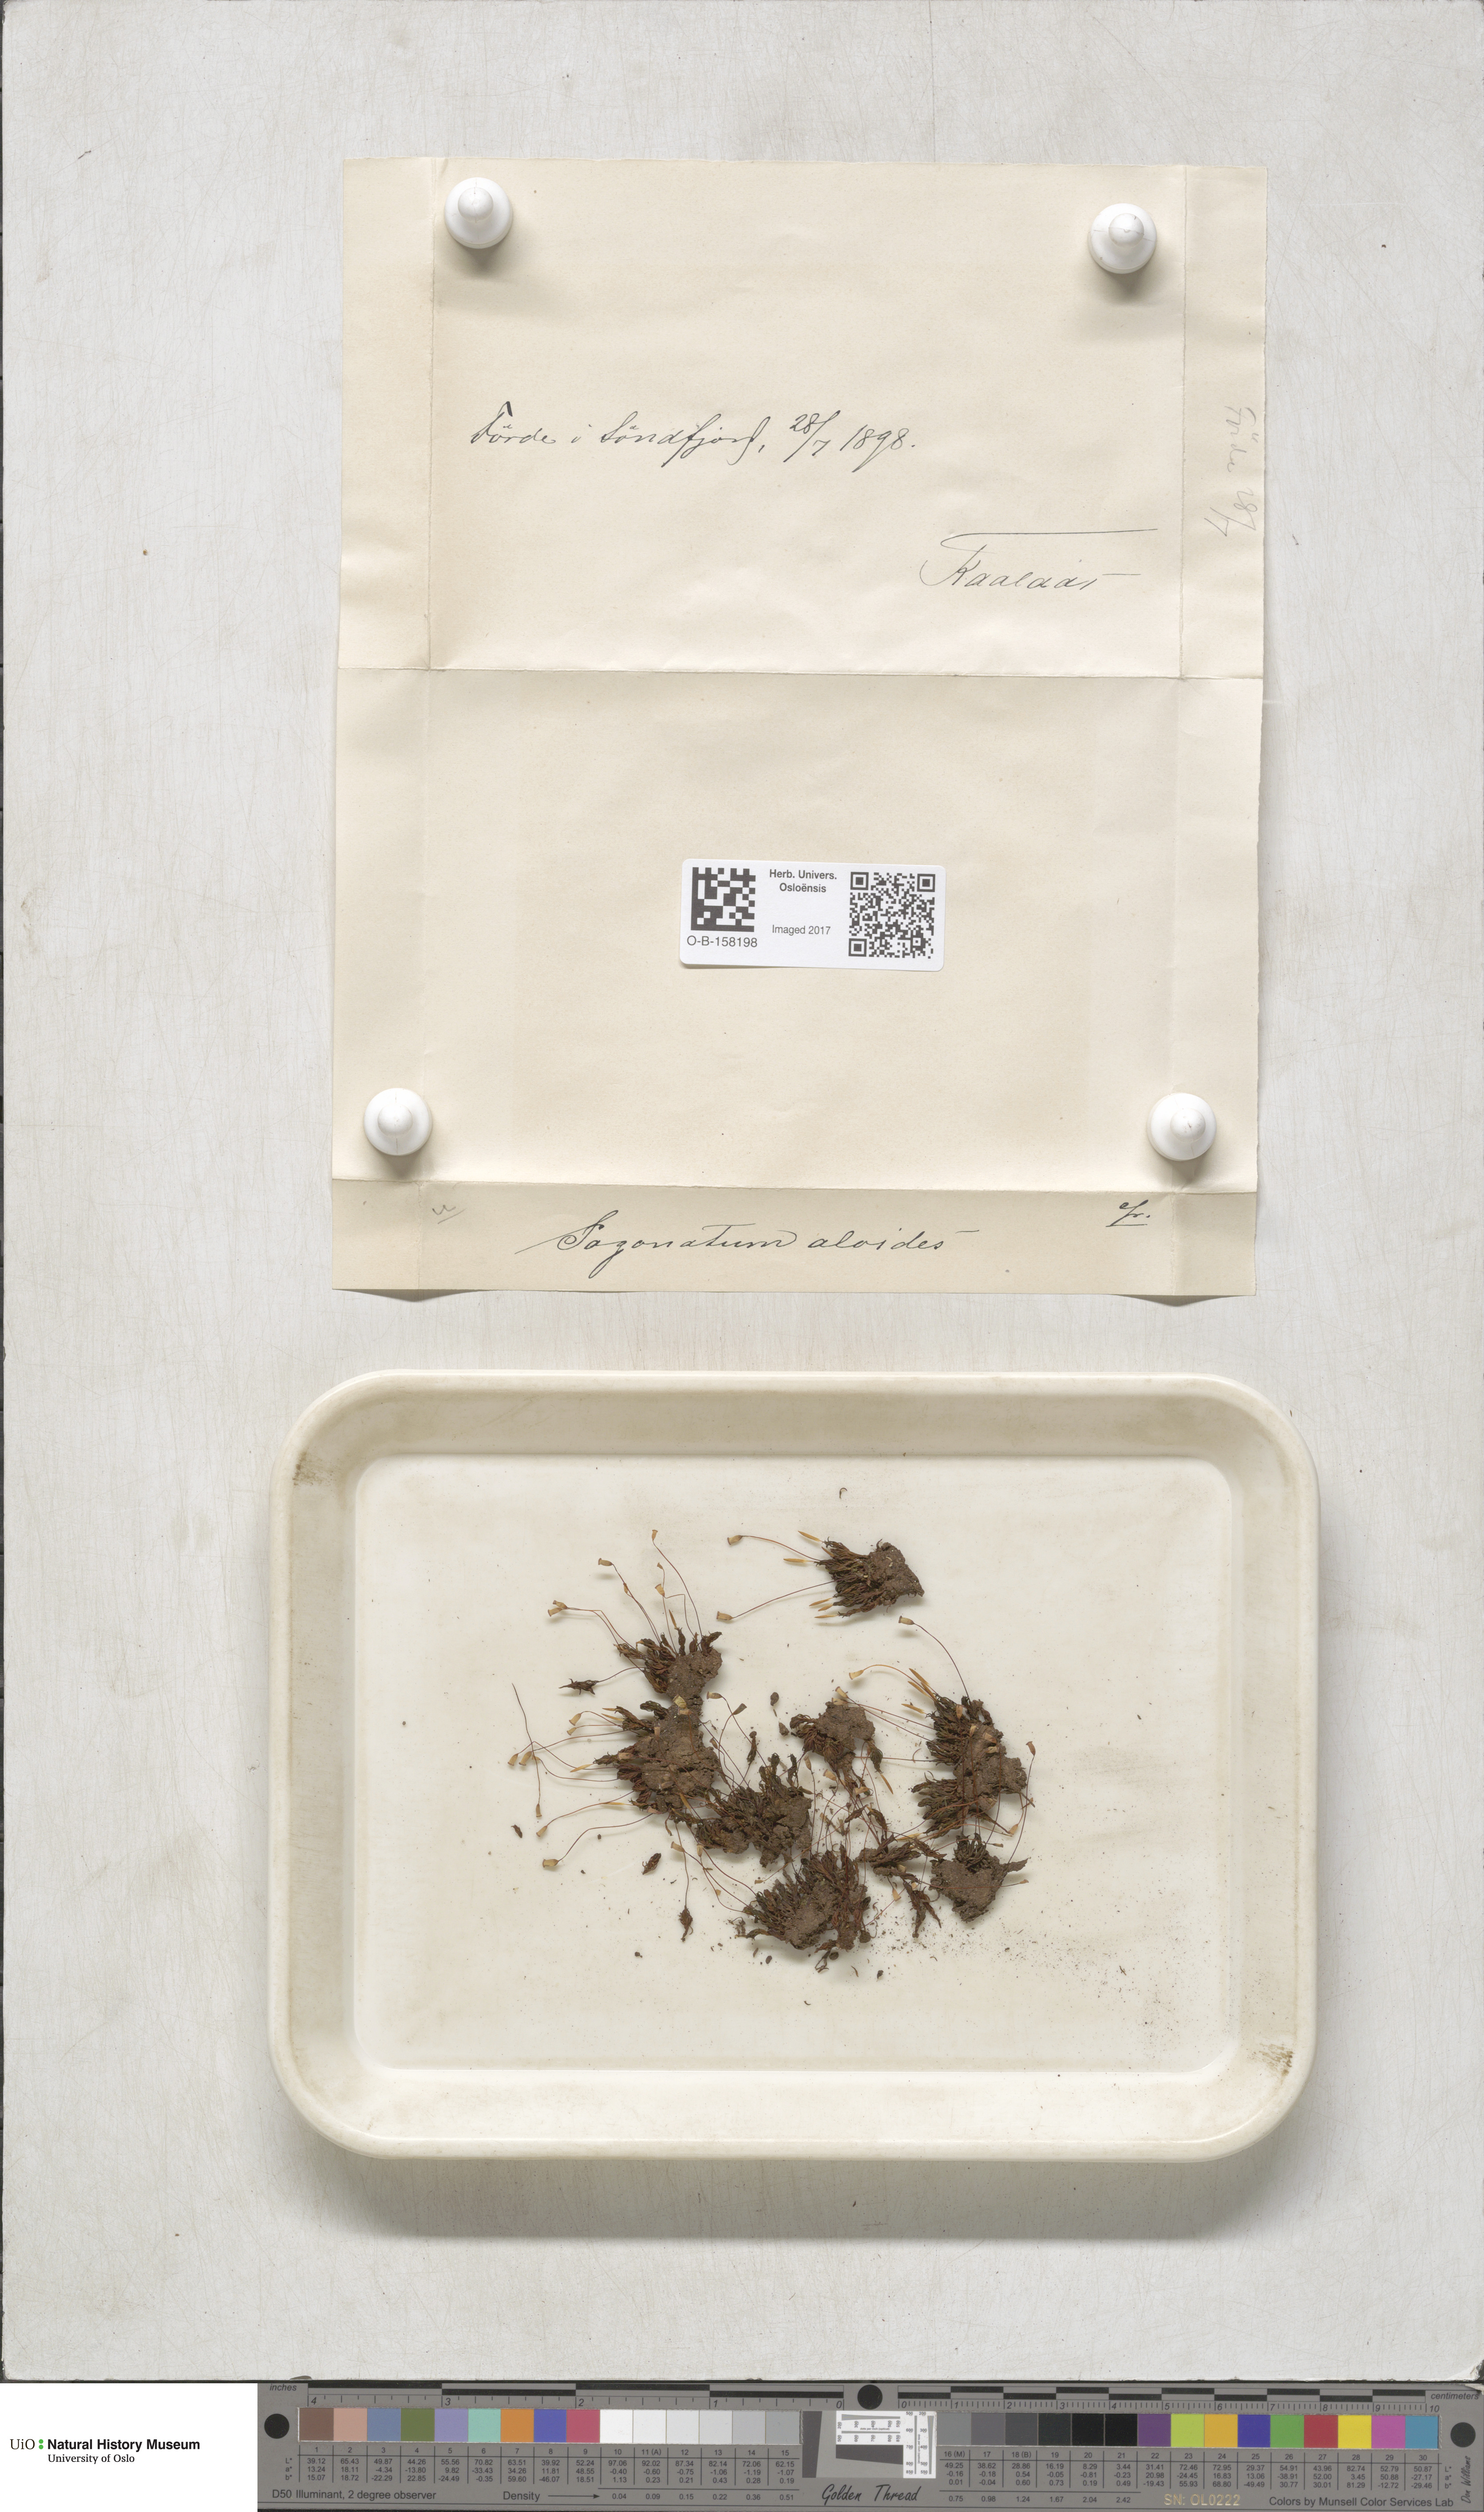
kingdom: Plantae
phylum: Bryophyta
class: Polytrichopsida
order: Polytrichales
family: Polytrichaceae
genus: Pogonatum
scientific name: Pogonatum aloides
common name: Aloe haircap
